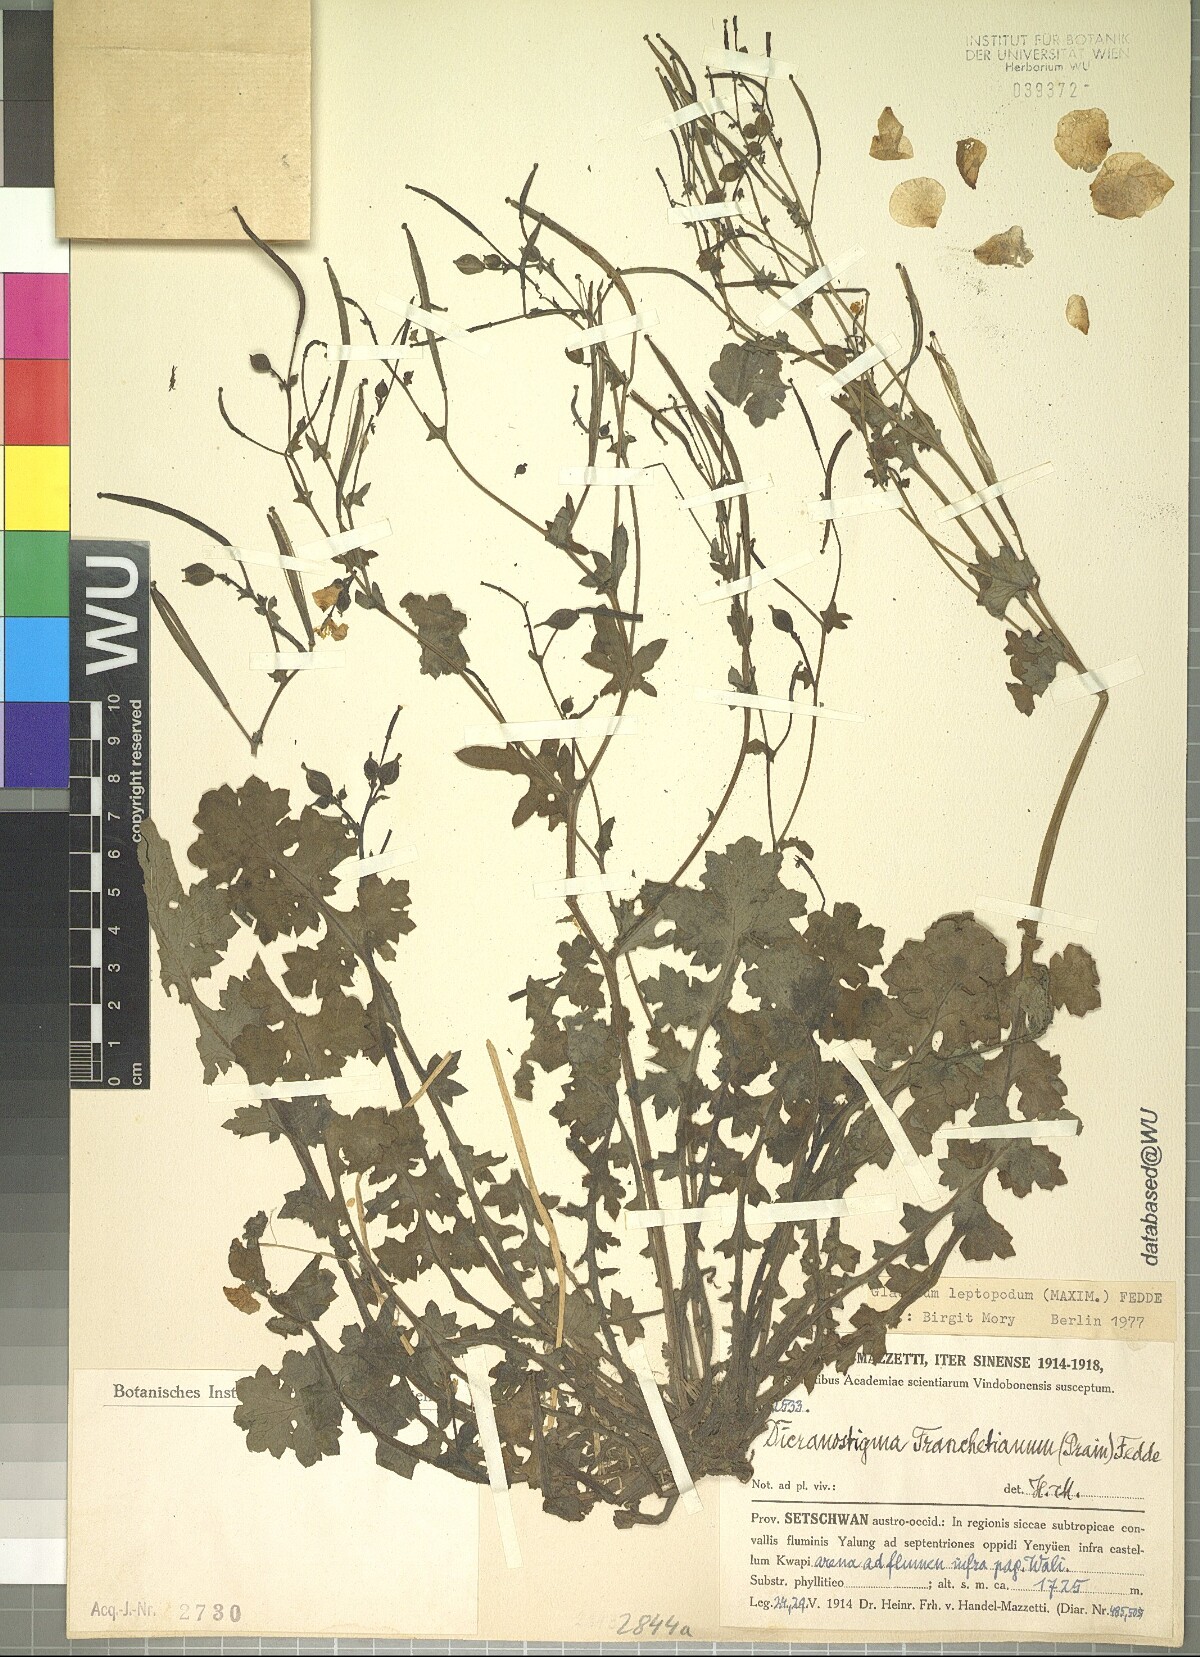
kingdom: Plantae
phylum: Tracheophyta
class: Magnoliopsida
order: Ranunculales
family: Papaveraceae
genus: Dicranostigma
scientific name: Dicranostigma leptopodum
